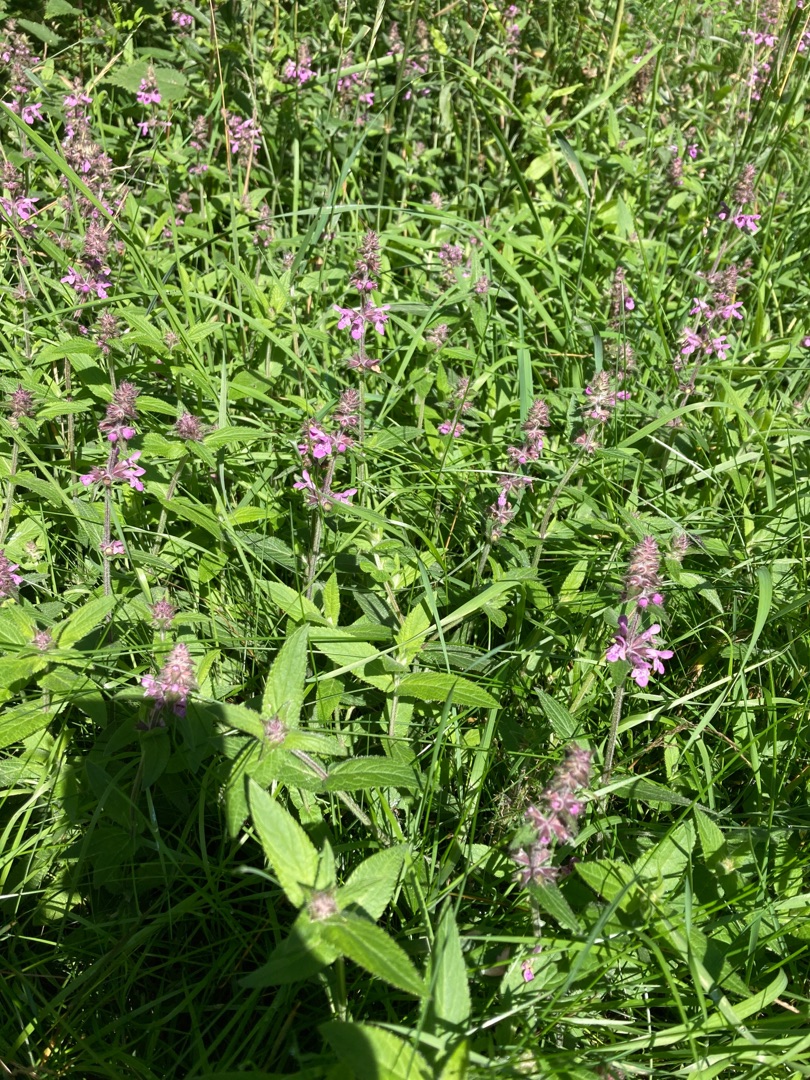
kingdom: Plantae
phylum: Tracheophyta
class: Magnoliopsida
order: Lamiales
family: Lamiaceae
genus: Stachys
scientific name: Stachys palustris
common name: Kær-galtetand
